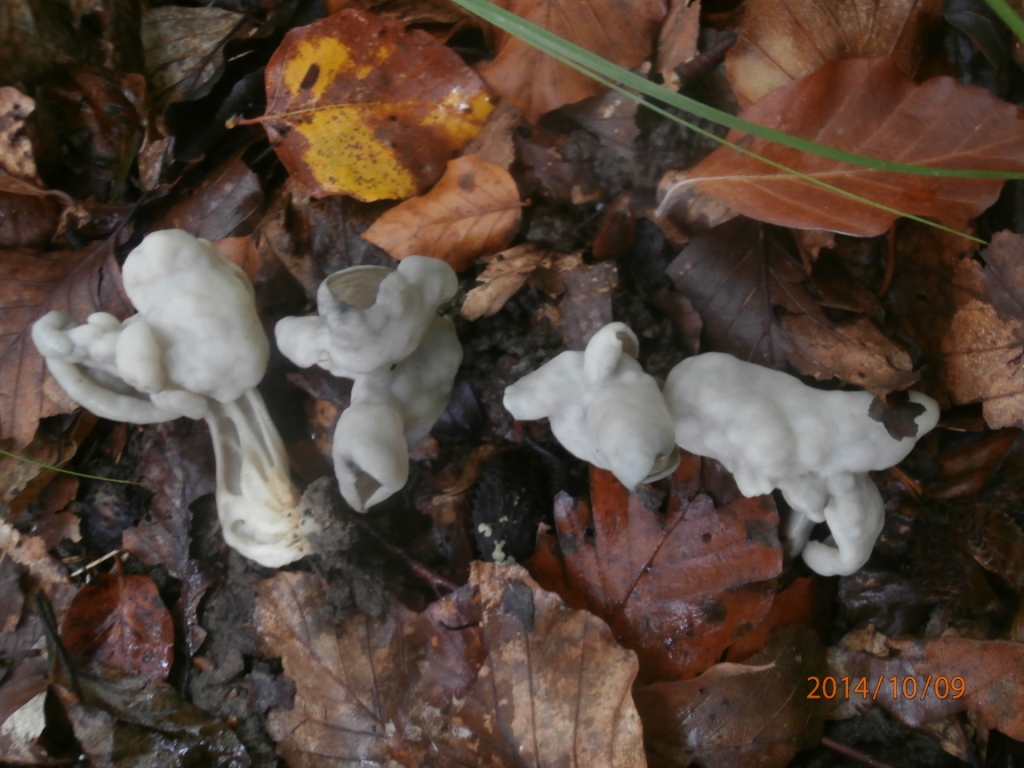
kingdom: Fungi
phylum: Ascomycota
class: Pezizomycetes
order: Pezizales
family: Helvellaceae
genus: Helvella
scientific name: Helvella lacunosa
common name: grubet foldhat
